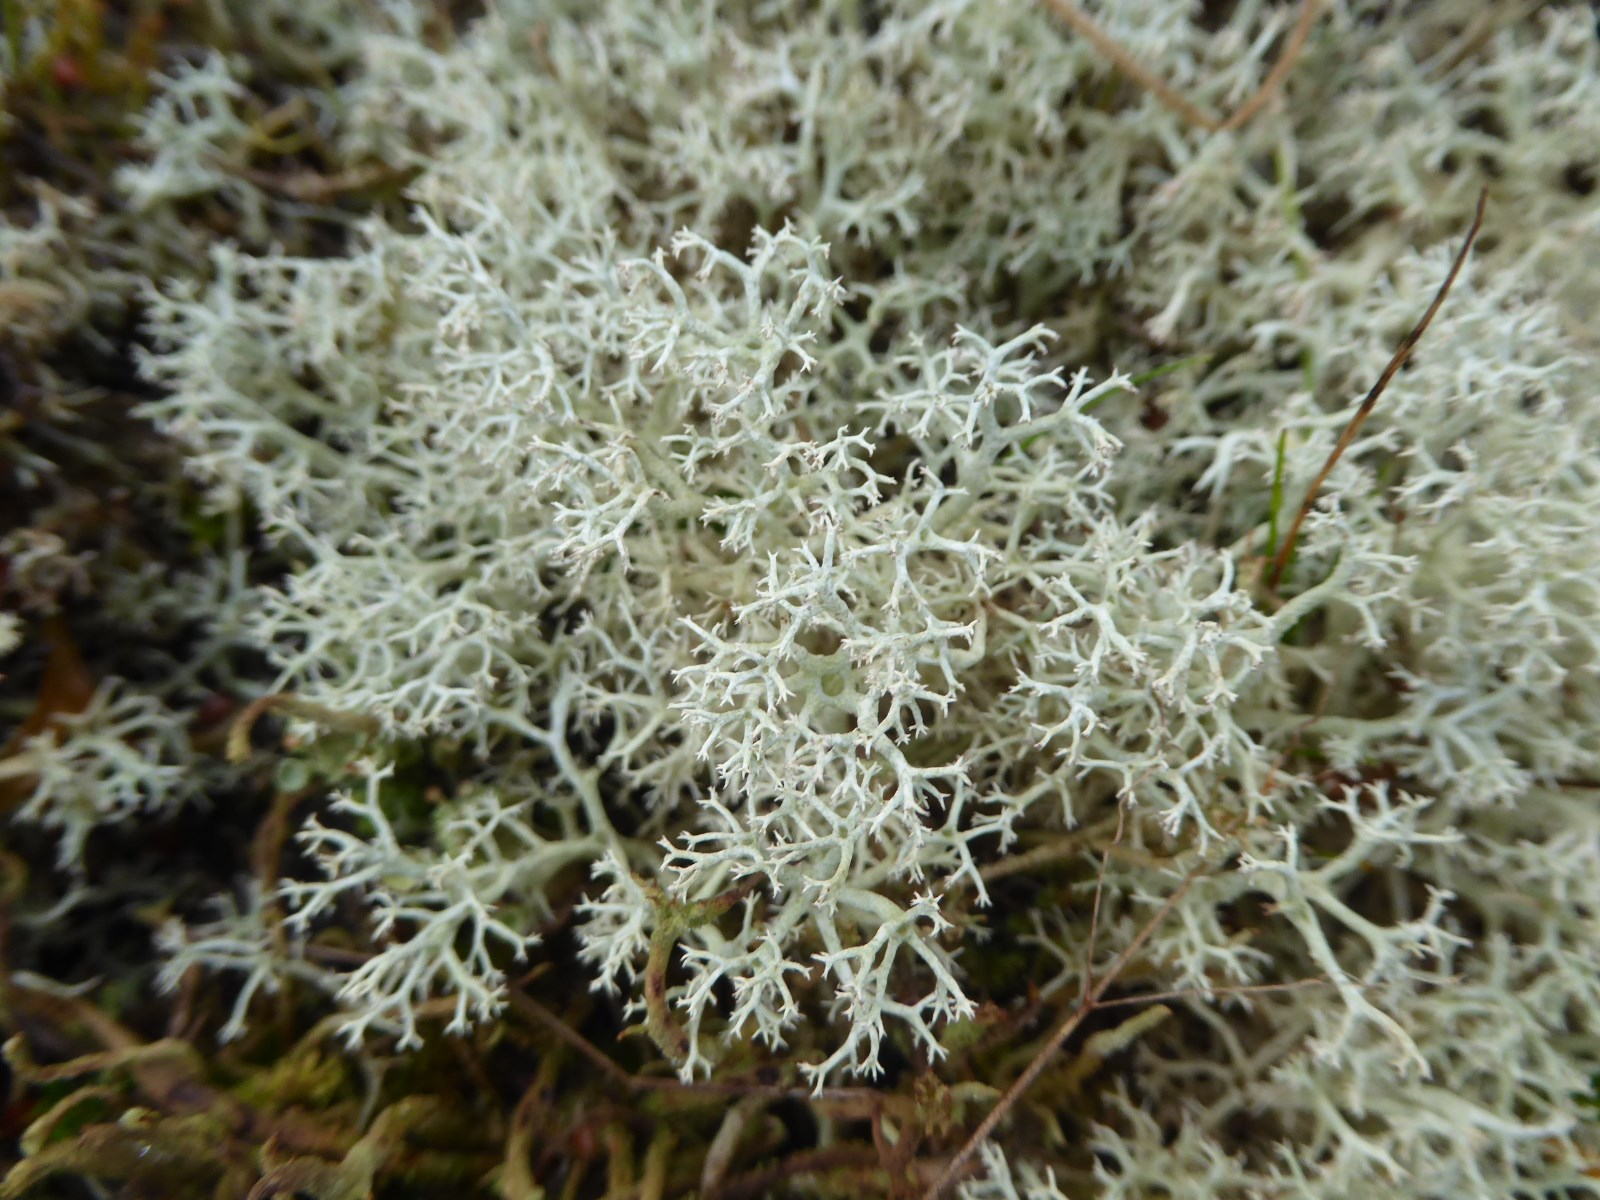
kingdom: Fungi
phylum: Ascomycota
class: Lecanoromycetes
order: Lecanorales
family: Cladoniaceae
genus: Cladonia
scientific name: Cladonia portentosa
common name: hede-rensdyrlav
